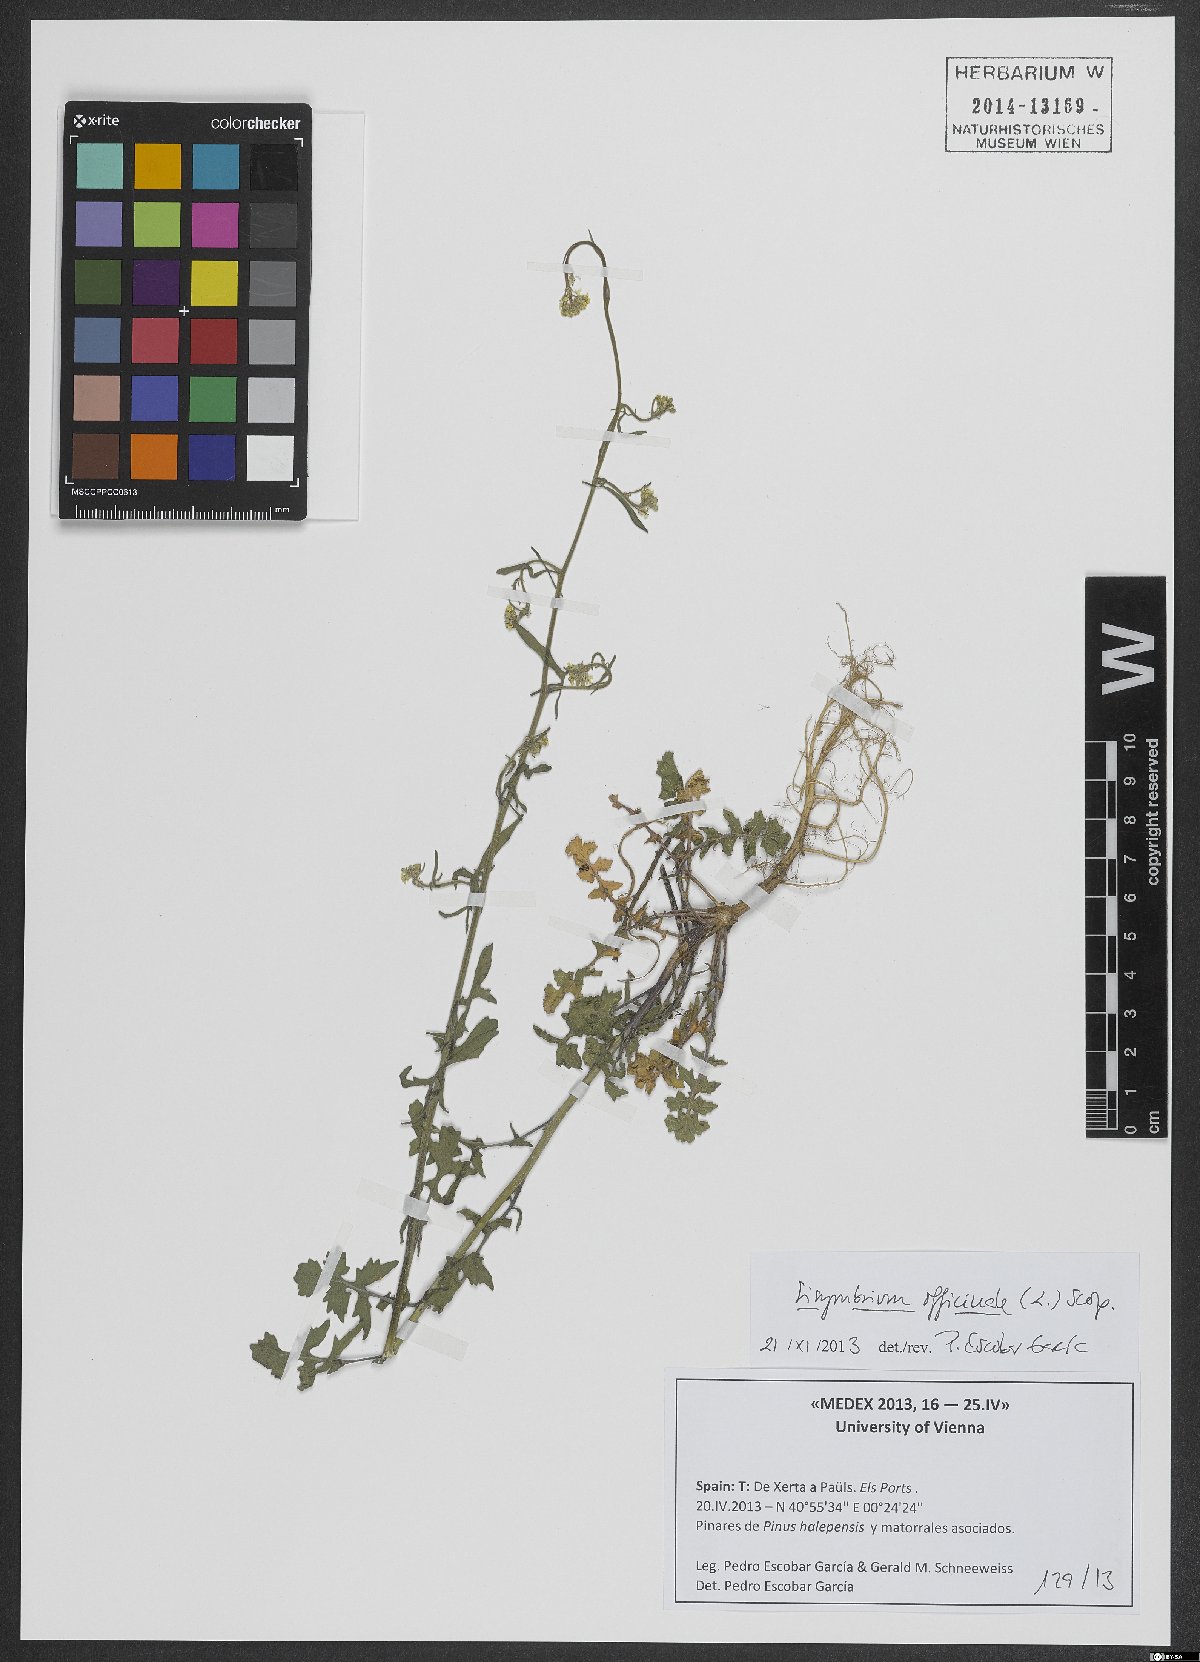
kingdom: Plantae
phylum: Tracheophyta
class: Magnoliopsida
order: Brassicales
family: Brassicaceae
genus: Sisymbrium
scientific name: Sisymbrium officinale
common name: Hedge mustard
